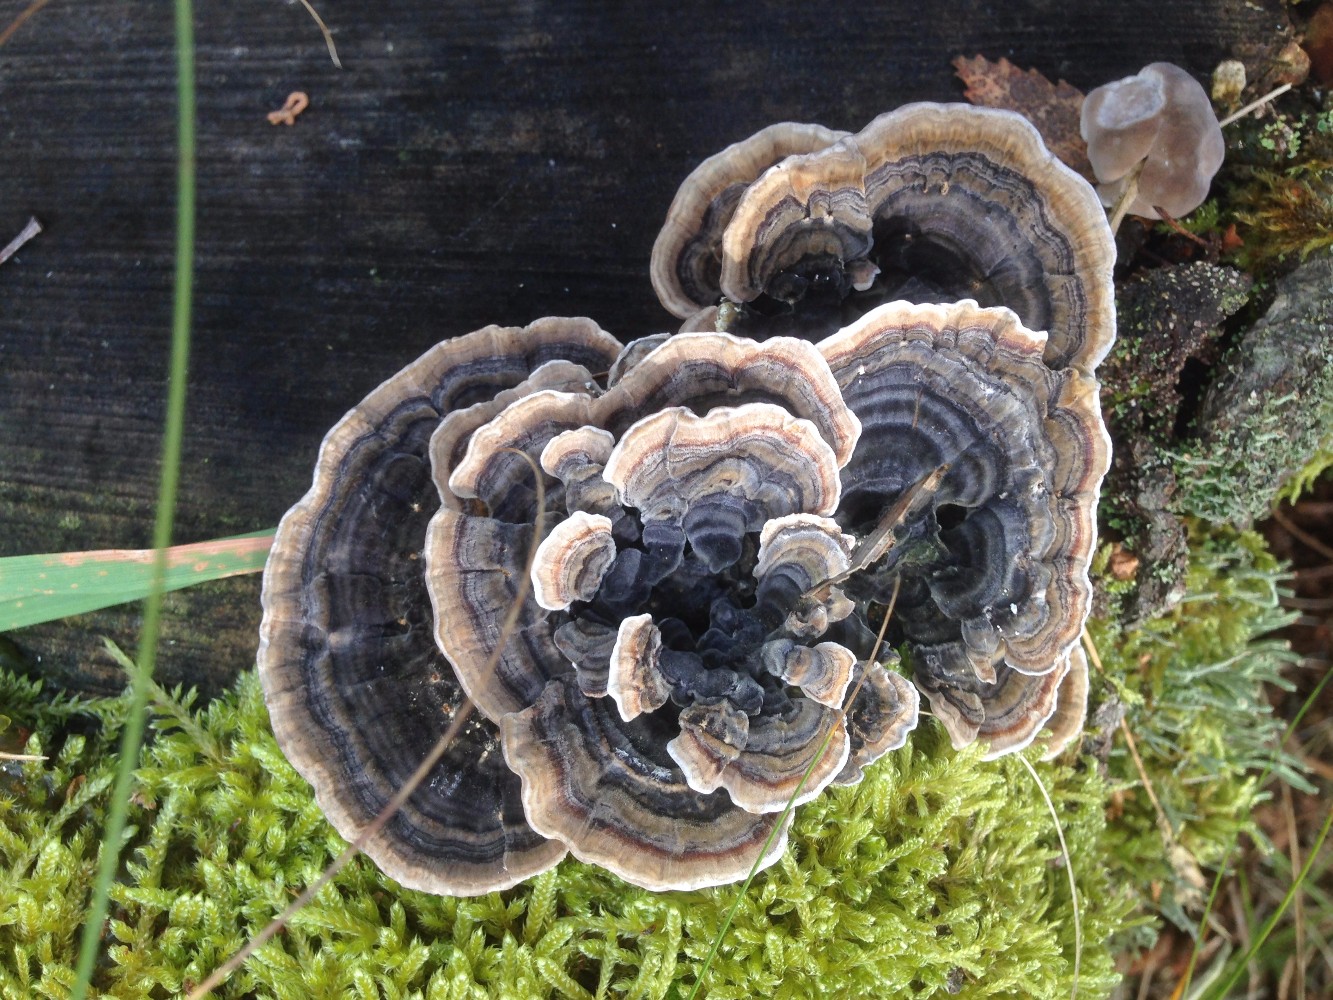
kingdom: Fungi
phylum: Basidiomycota
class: Agaricomycetes
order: Polyporales
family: Polyporaceae
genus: Trametes
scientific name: Trametes versicolor
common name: broget læderporesvamp
